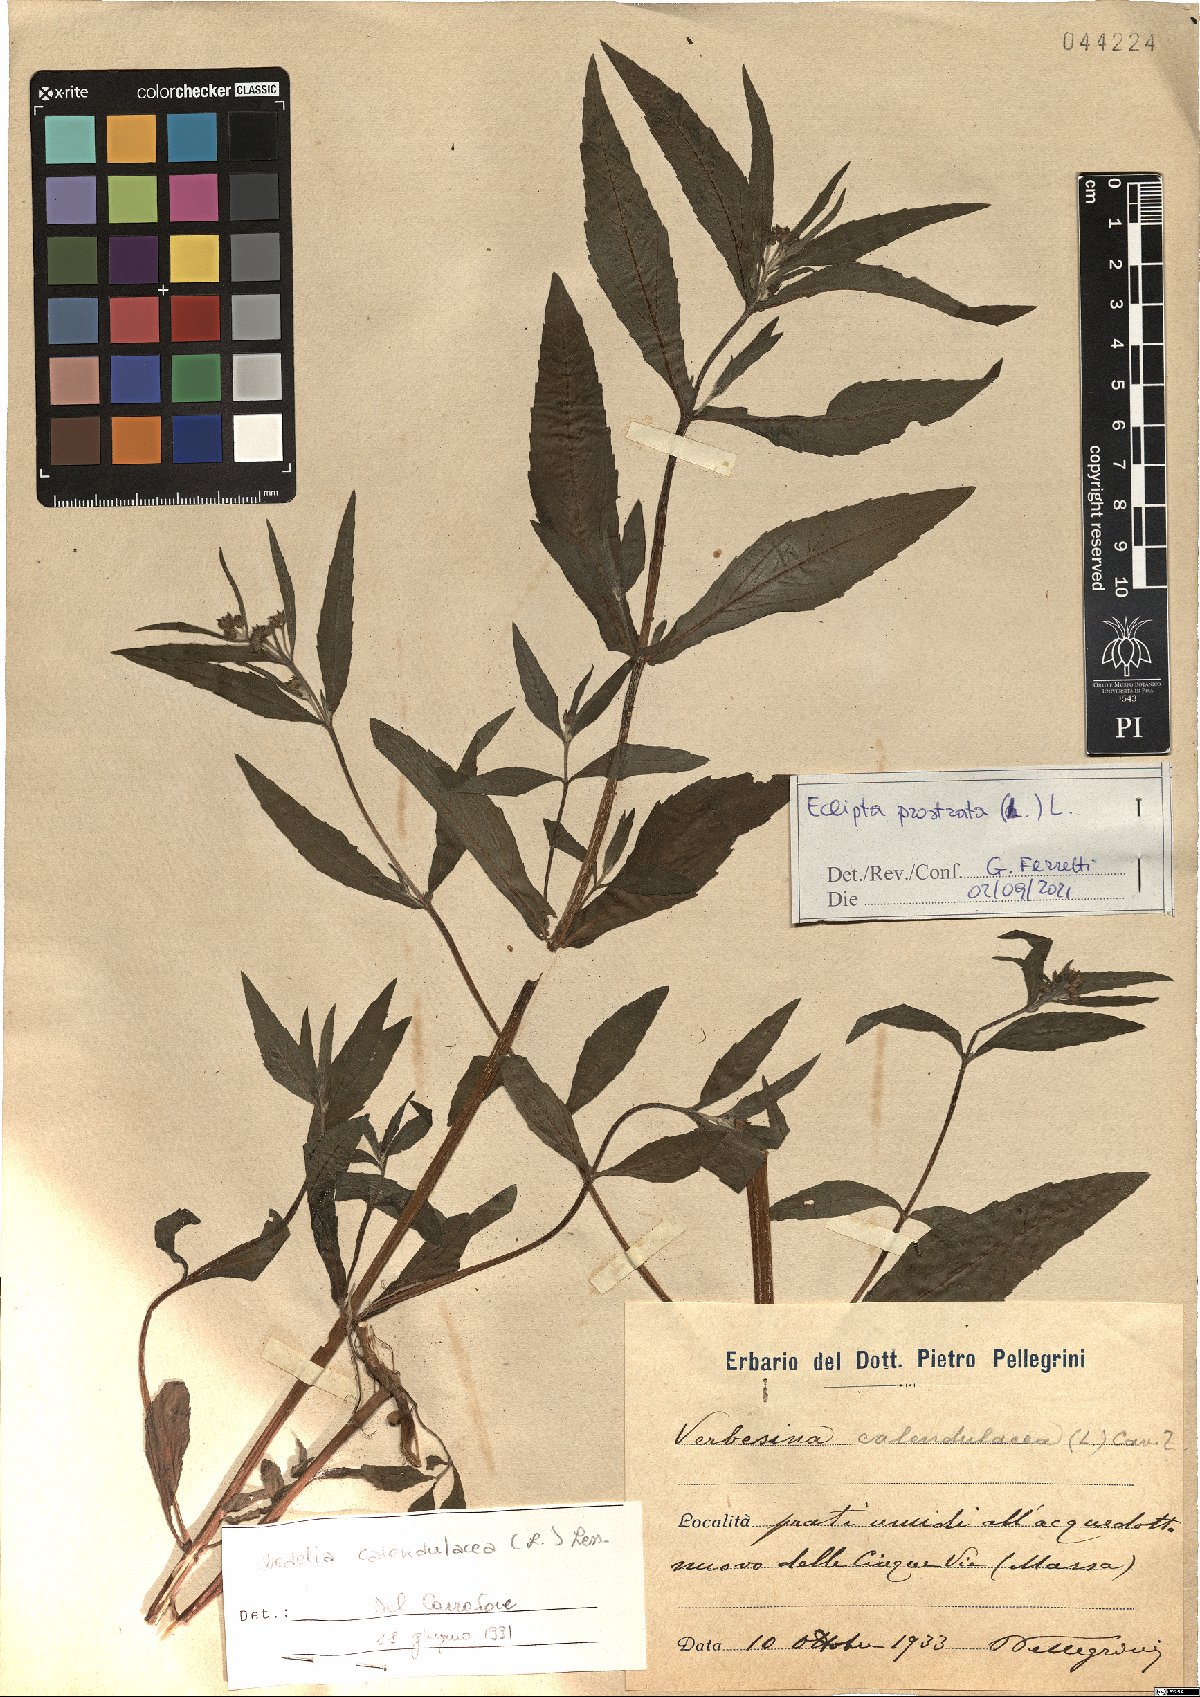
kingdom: Plantae
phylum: Tracheophyta
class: Magnoliopsida
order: Asterales
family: Asteraceae
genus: Eclipta
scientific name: Eclipta prostrata
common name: False daisy
